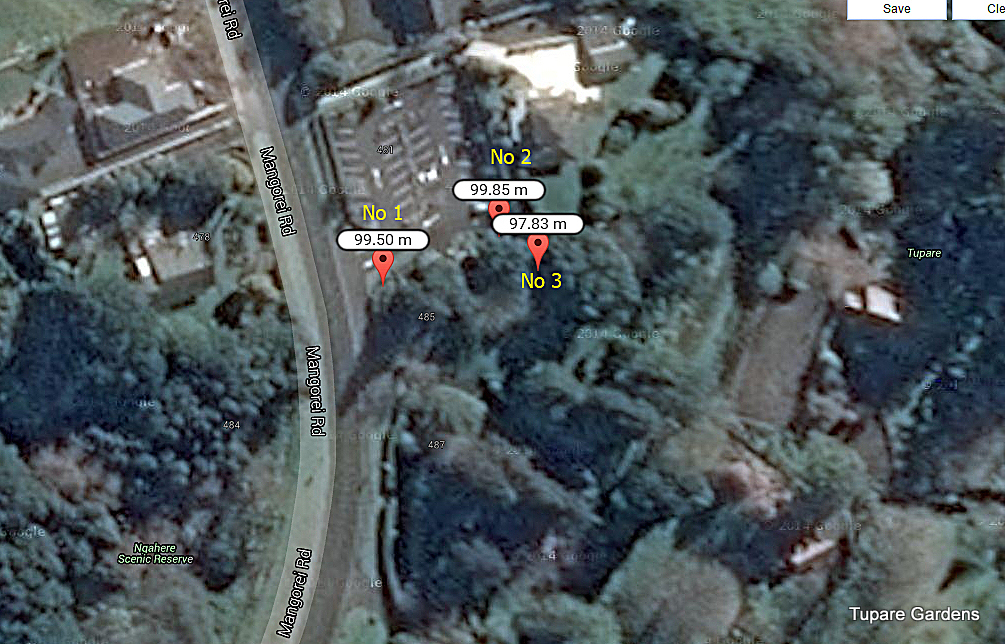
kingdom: Plantae
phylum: Tracheophyta
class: Magnoliopsida
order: Lamiales
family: Lamiaceae
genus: Plectranthus
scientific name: Plectranthus elegans
